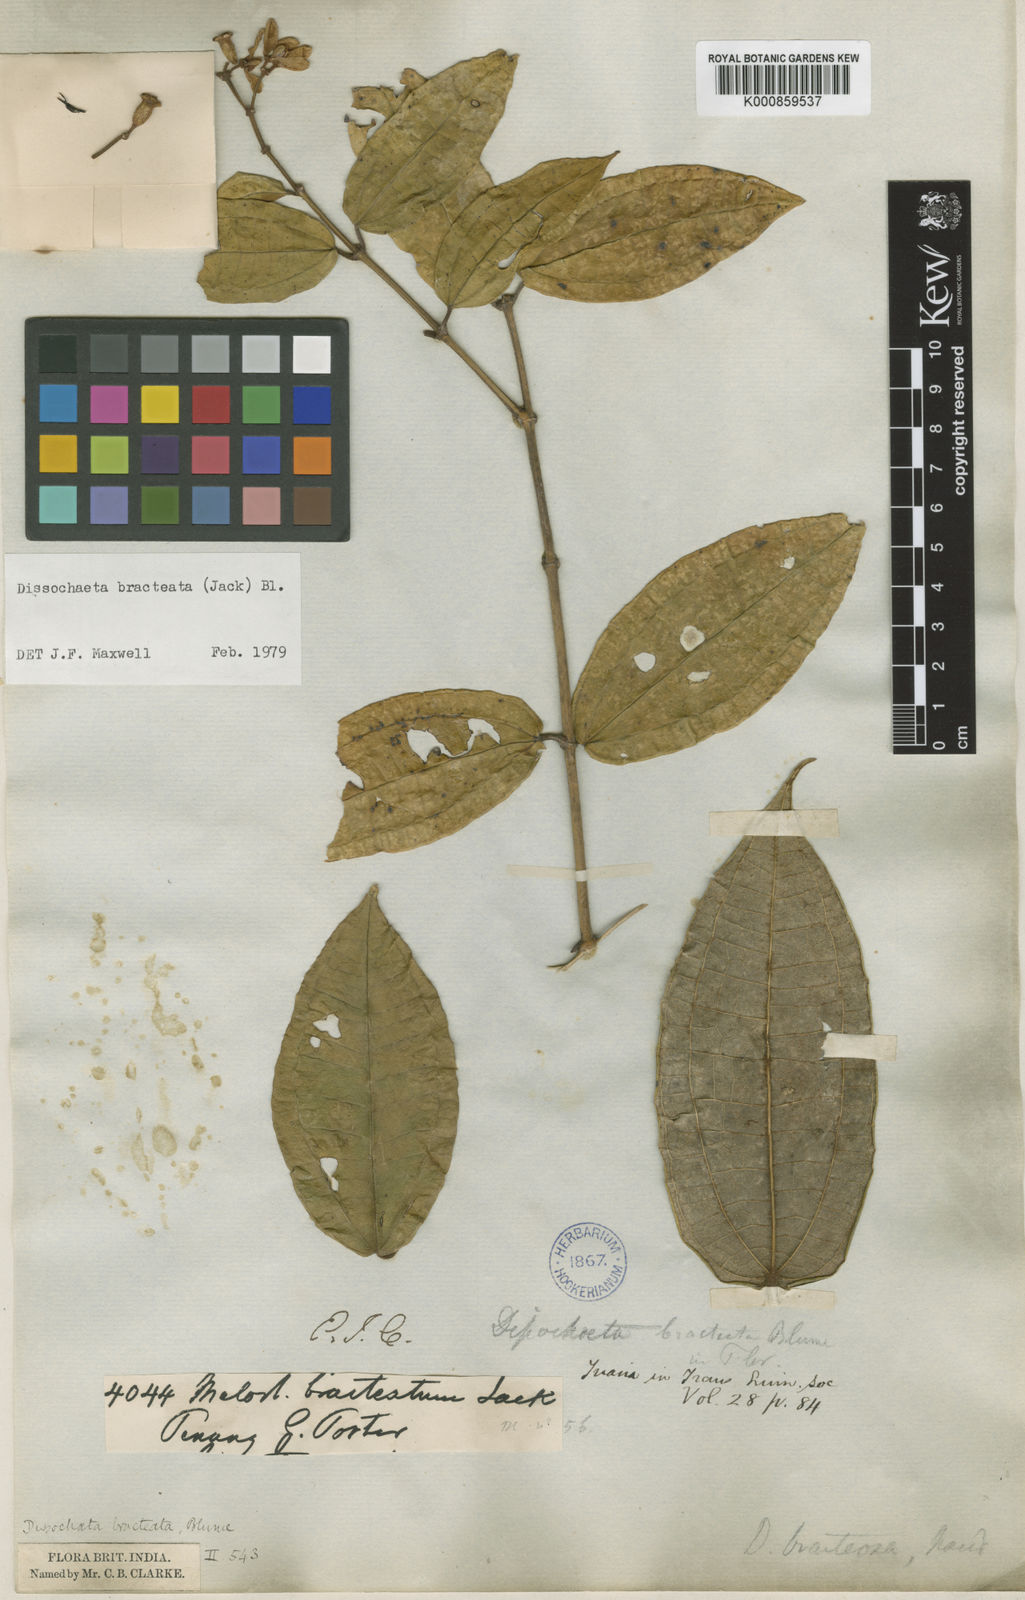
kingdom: Plantae
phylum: Tracheophyta
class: Magnoliopsida
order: Myrtales
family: Melastomataceae
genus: Dissochaeta
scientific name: Dissochaeta bracteata
